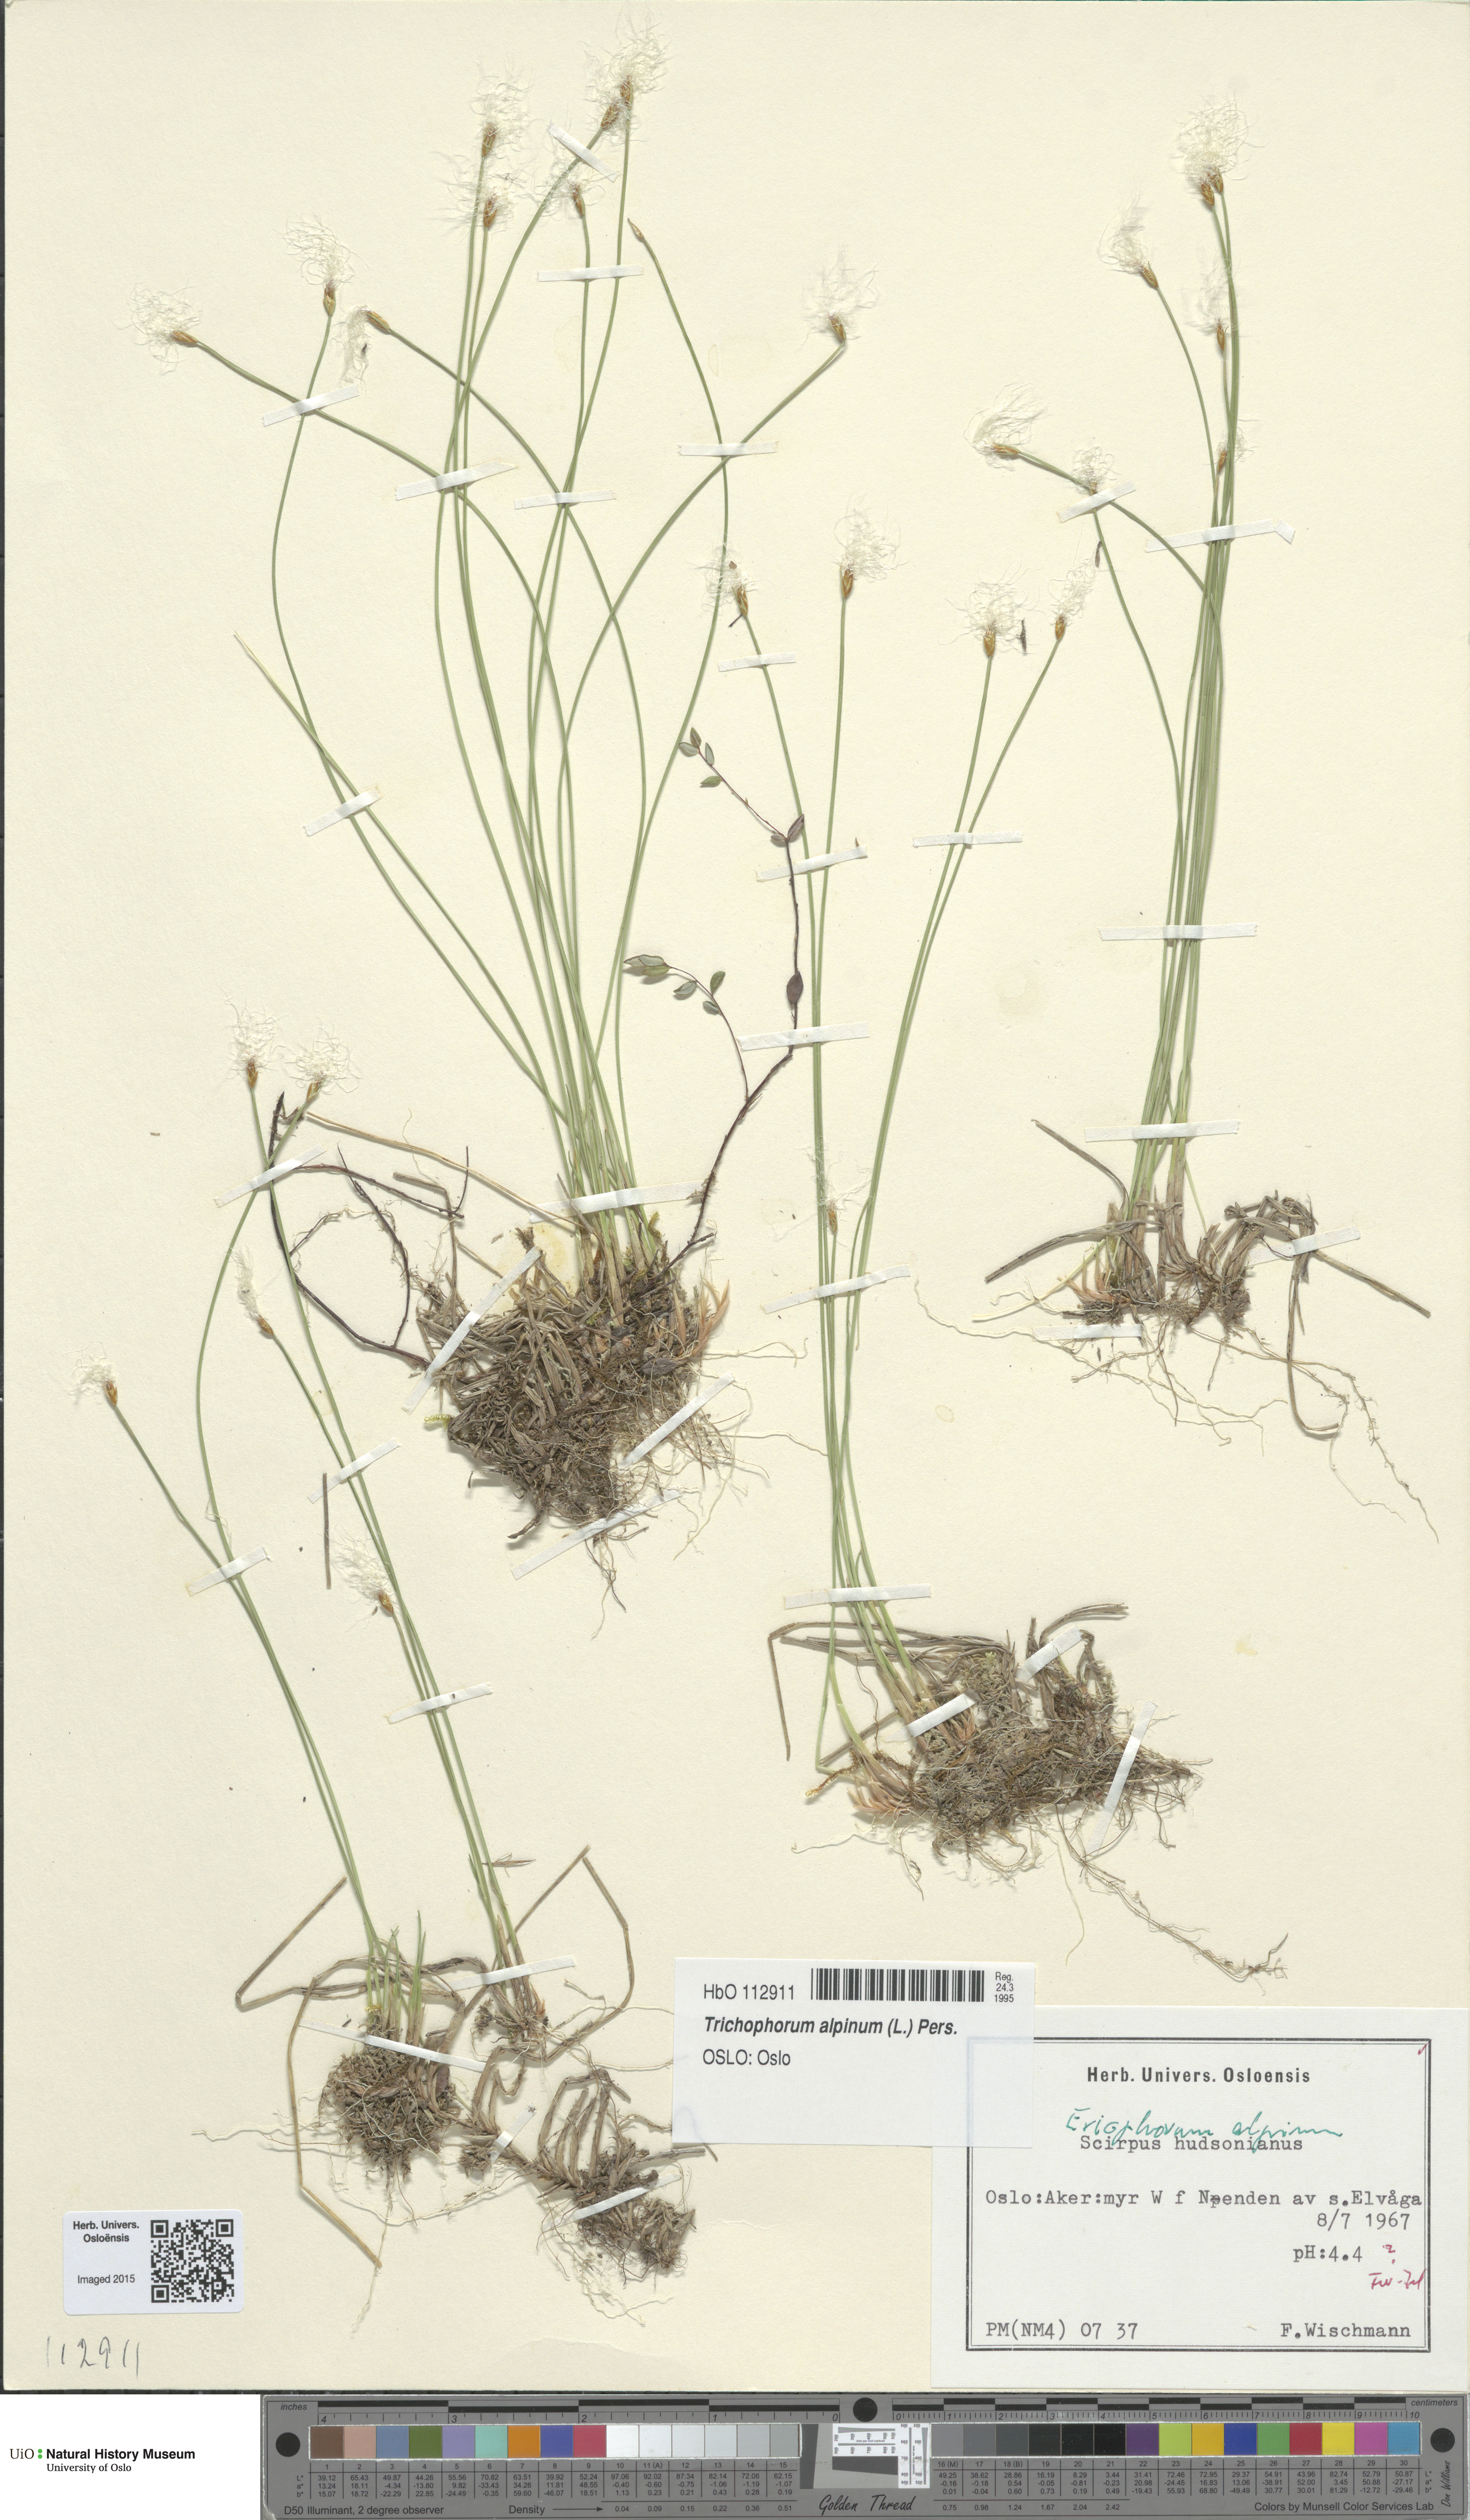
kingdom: Plantae
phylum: Tracheophyta
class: Liliopsida
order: Poales
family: Cyperaceae
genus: Trichophorum
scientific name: Trichophorum alpinum
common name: Alpine bulrush
